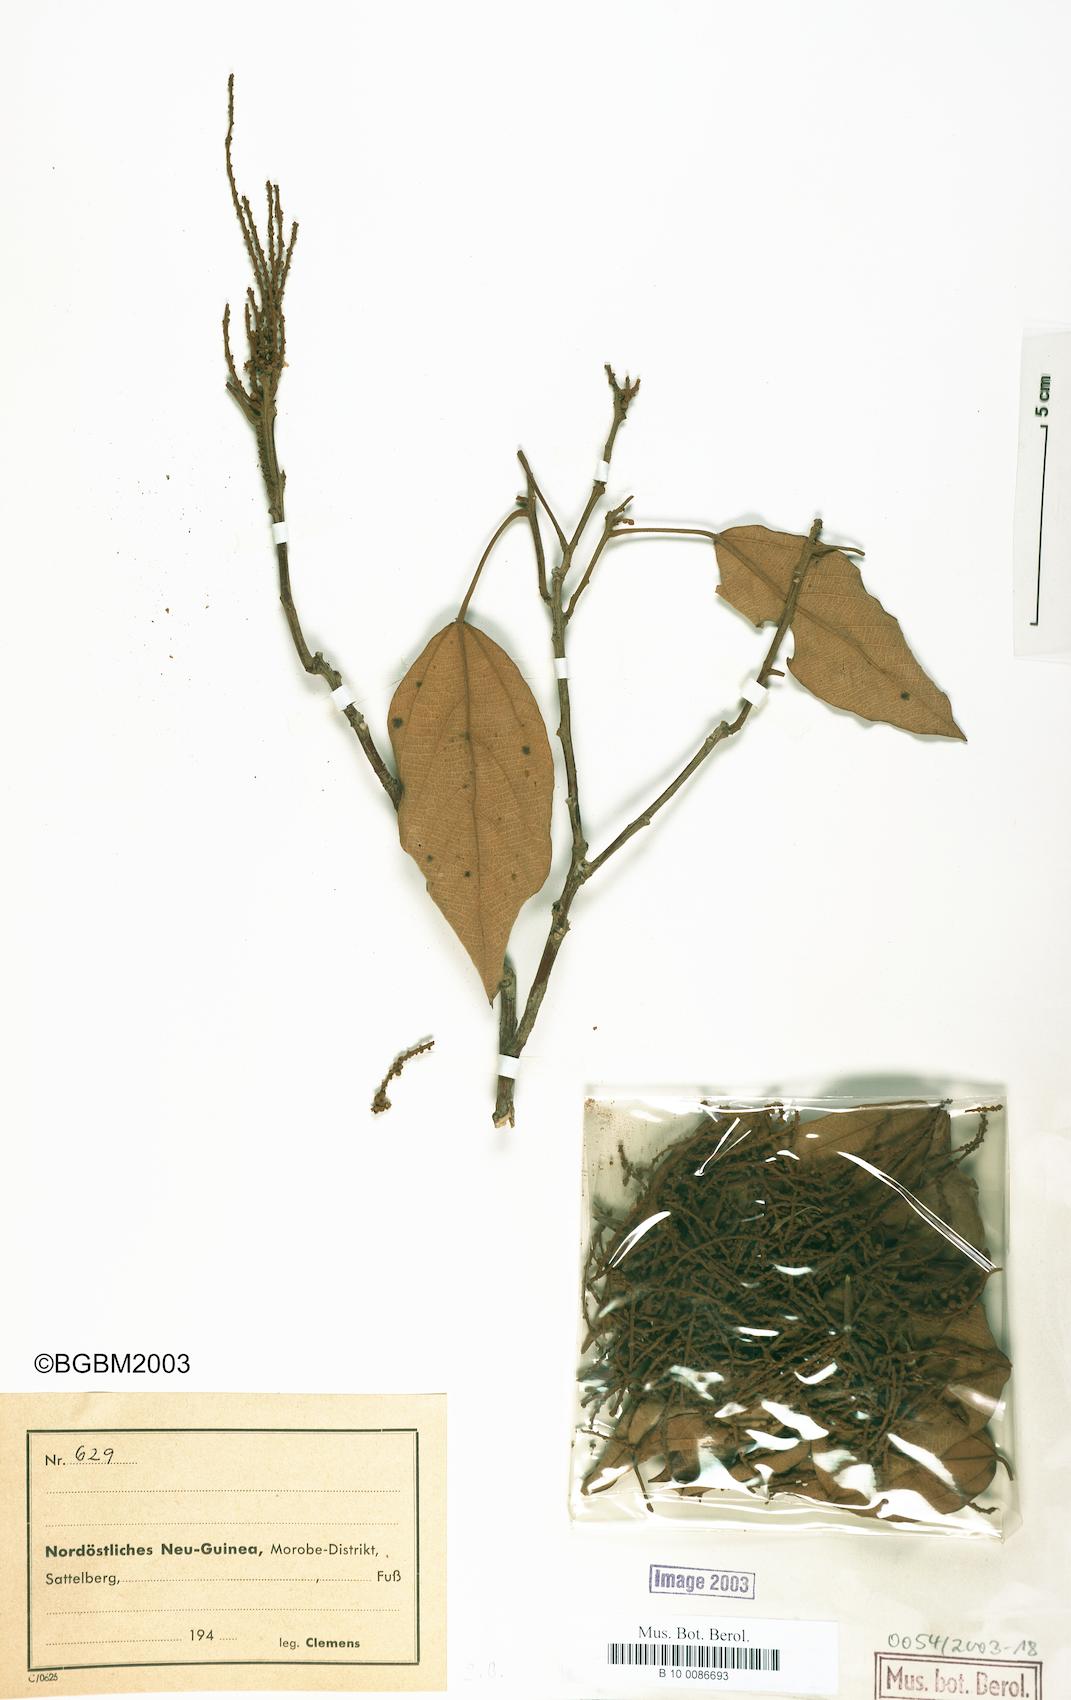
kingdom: Plantae
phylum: Tracheophyta
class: Magnoliopsida
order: Malpighiales
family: Euphorbiaceae
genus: Mallotus
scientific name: Mallotus philippensis
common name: Kamala tree
